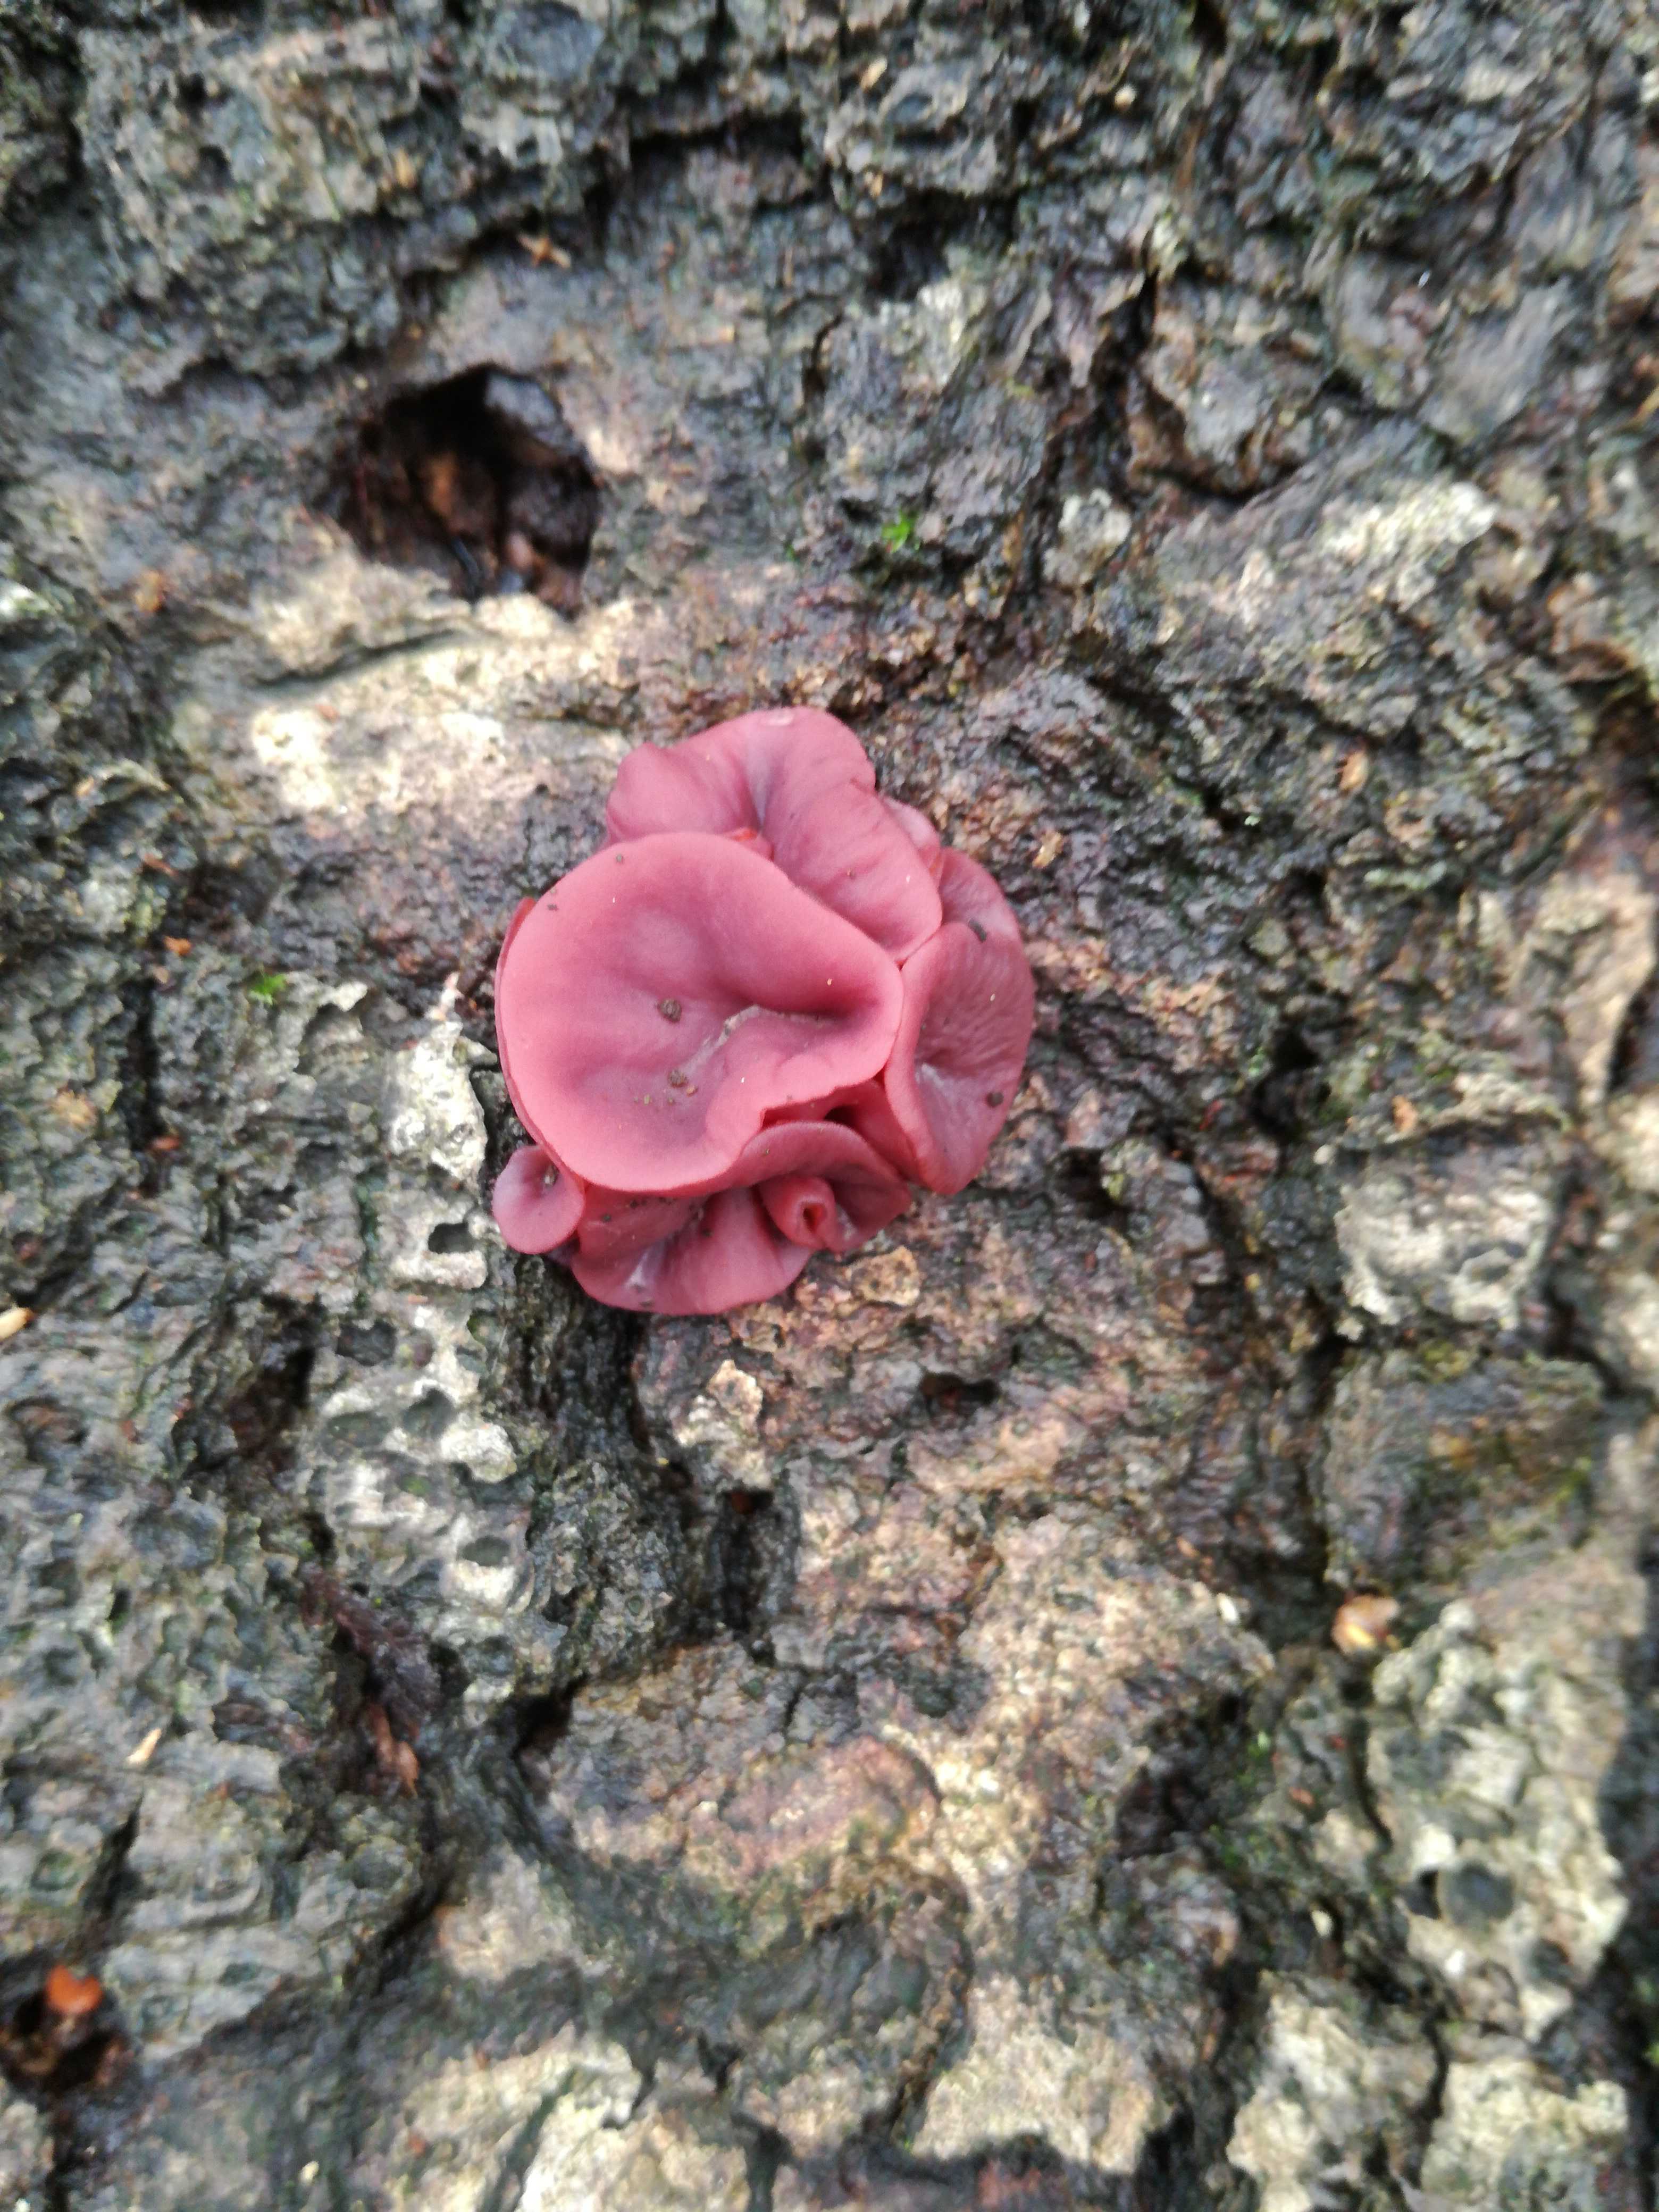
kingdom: Fungi
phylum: Ascomycota
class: Leotiomycetes
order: Helotiales
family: Gelatinodiscaceae
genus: Ascocoryne
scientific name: Ascocoryne cylichnium
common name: stor sejskive
